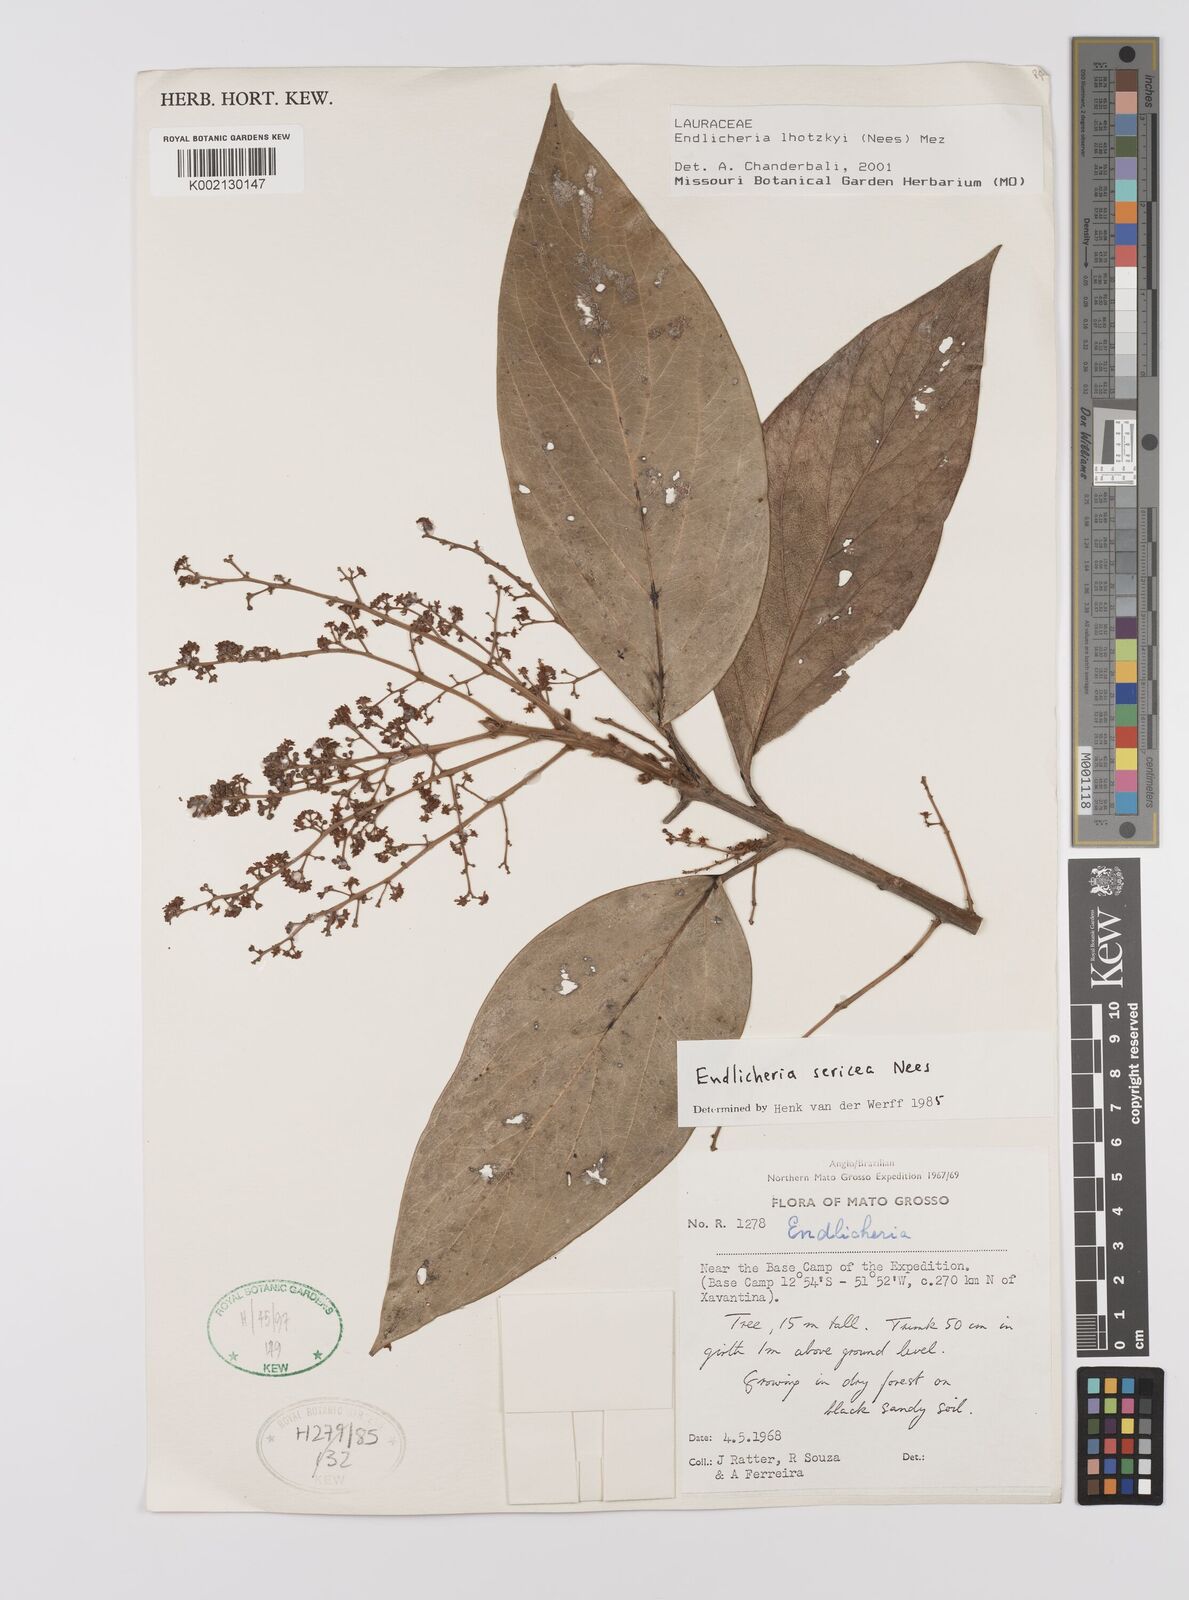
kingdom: Plantae
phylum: Tracheophyta
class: Magnoliopsida
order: Laurales
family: Lauraceae
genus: Endlicheria
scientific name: Endlicheria lhotzkyi
